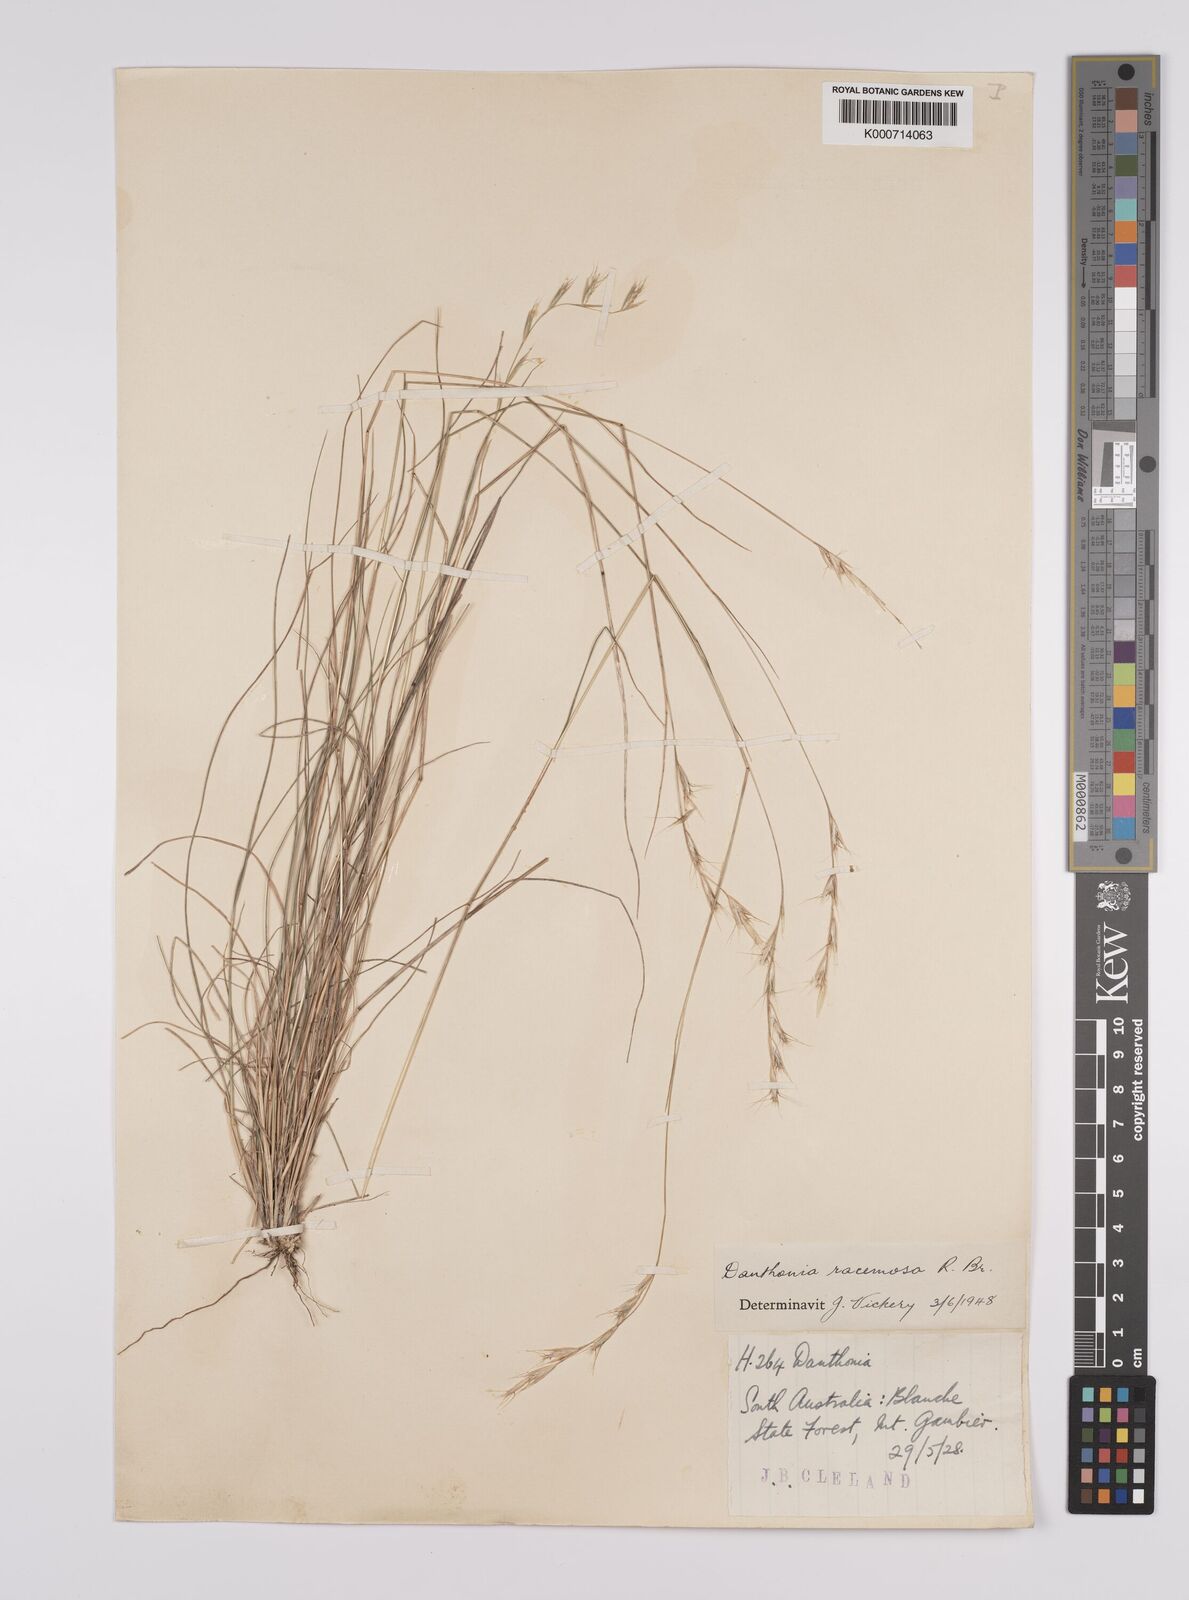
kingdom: Plantae
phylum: Tracheophyta
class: Liliopsida
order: Poales
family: Poaceae
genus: Rytidosperma
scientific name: Rytidosperma racemosum
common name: Wallaby-grass
